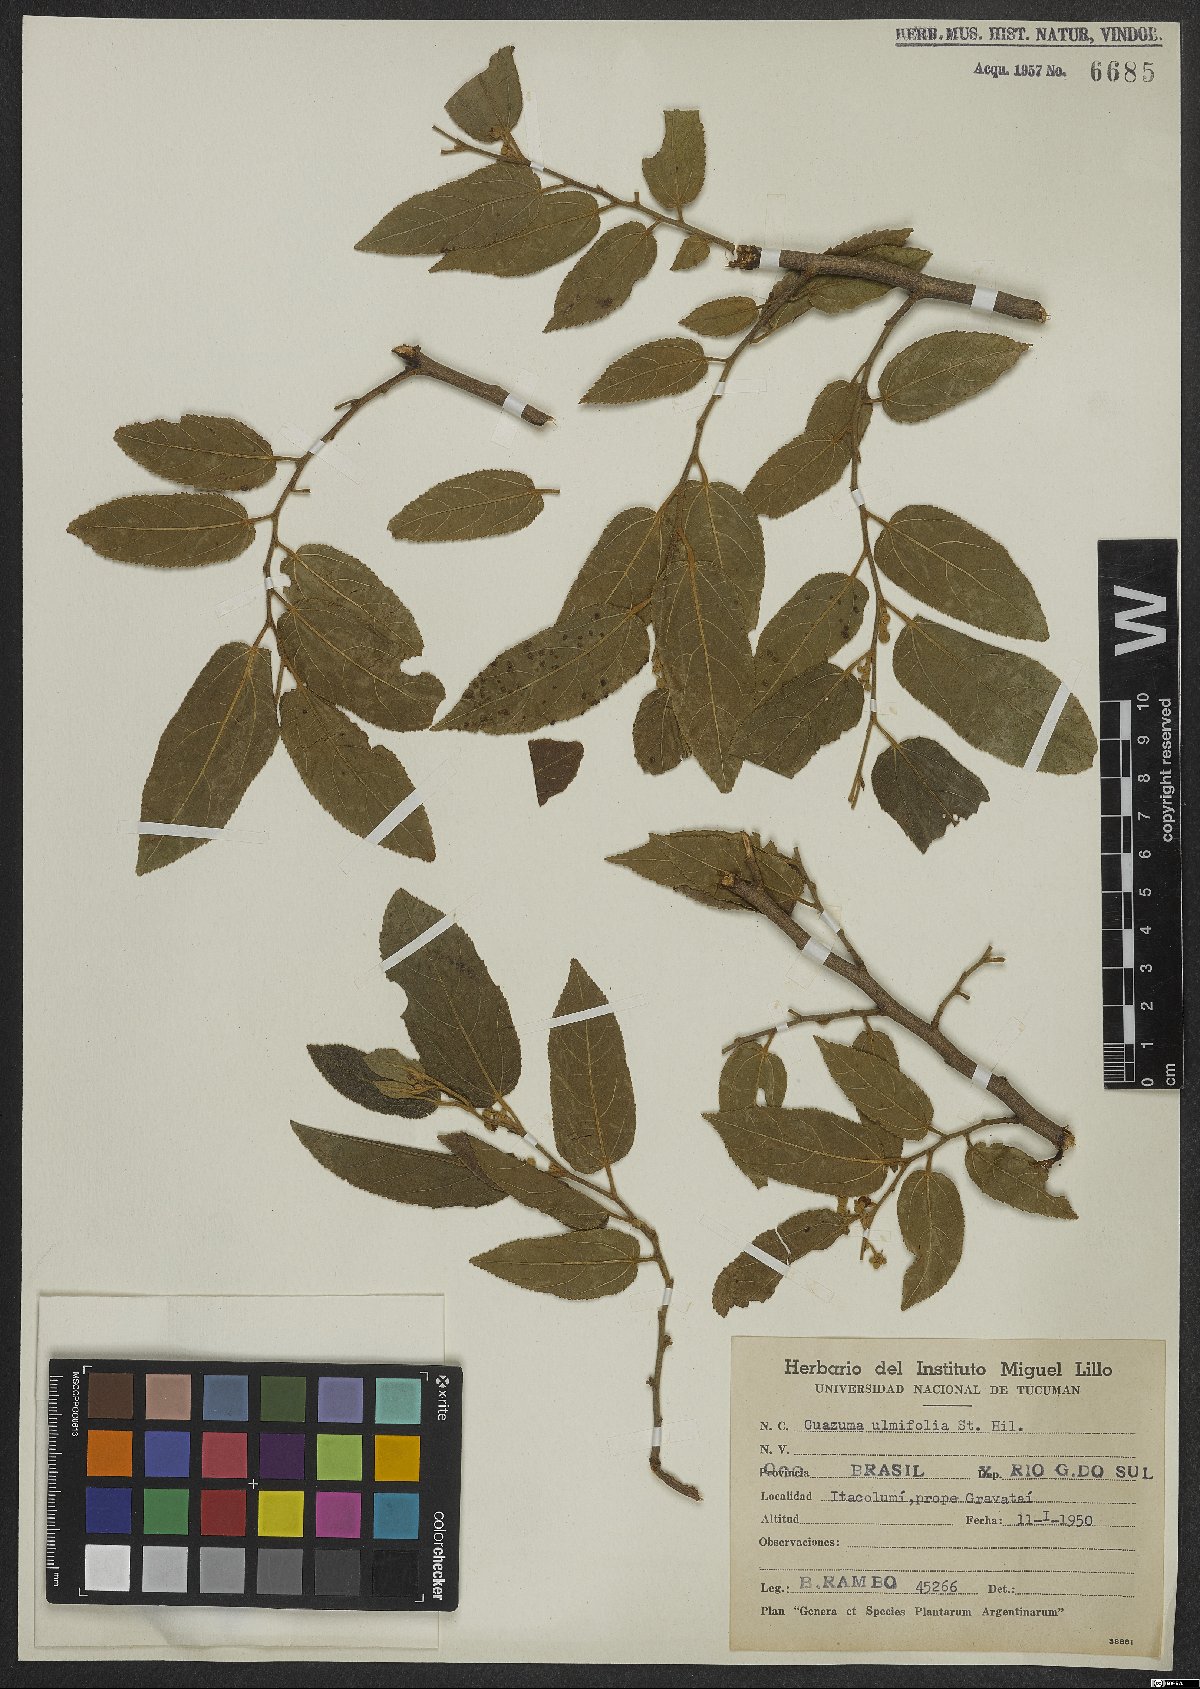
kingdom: Plantae
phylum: Tracheophyta
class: Magnoliopsida
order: Malvales
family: Malvaceae
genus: Guazuma
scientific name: Guazuma ulmifolia
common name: Bastard-cedar
